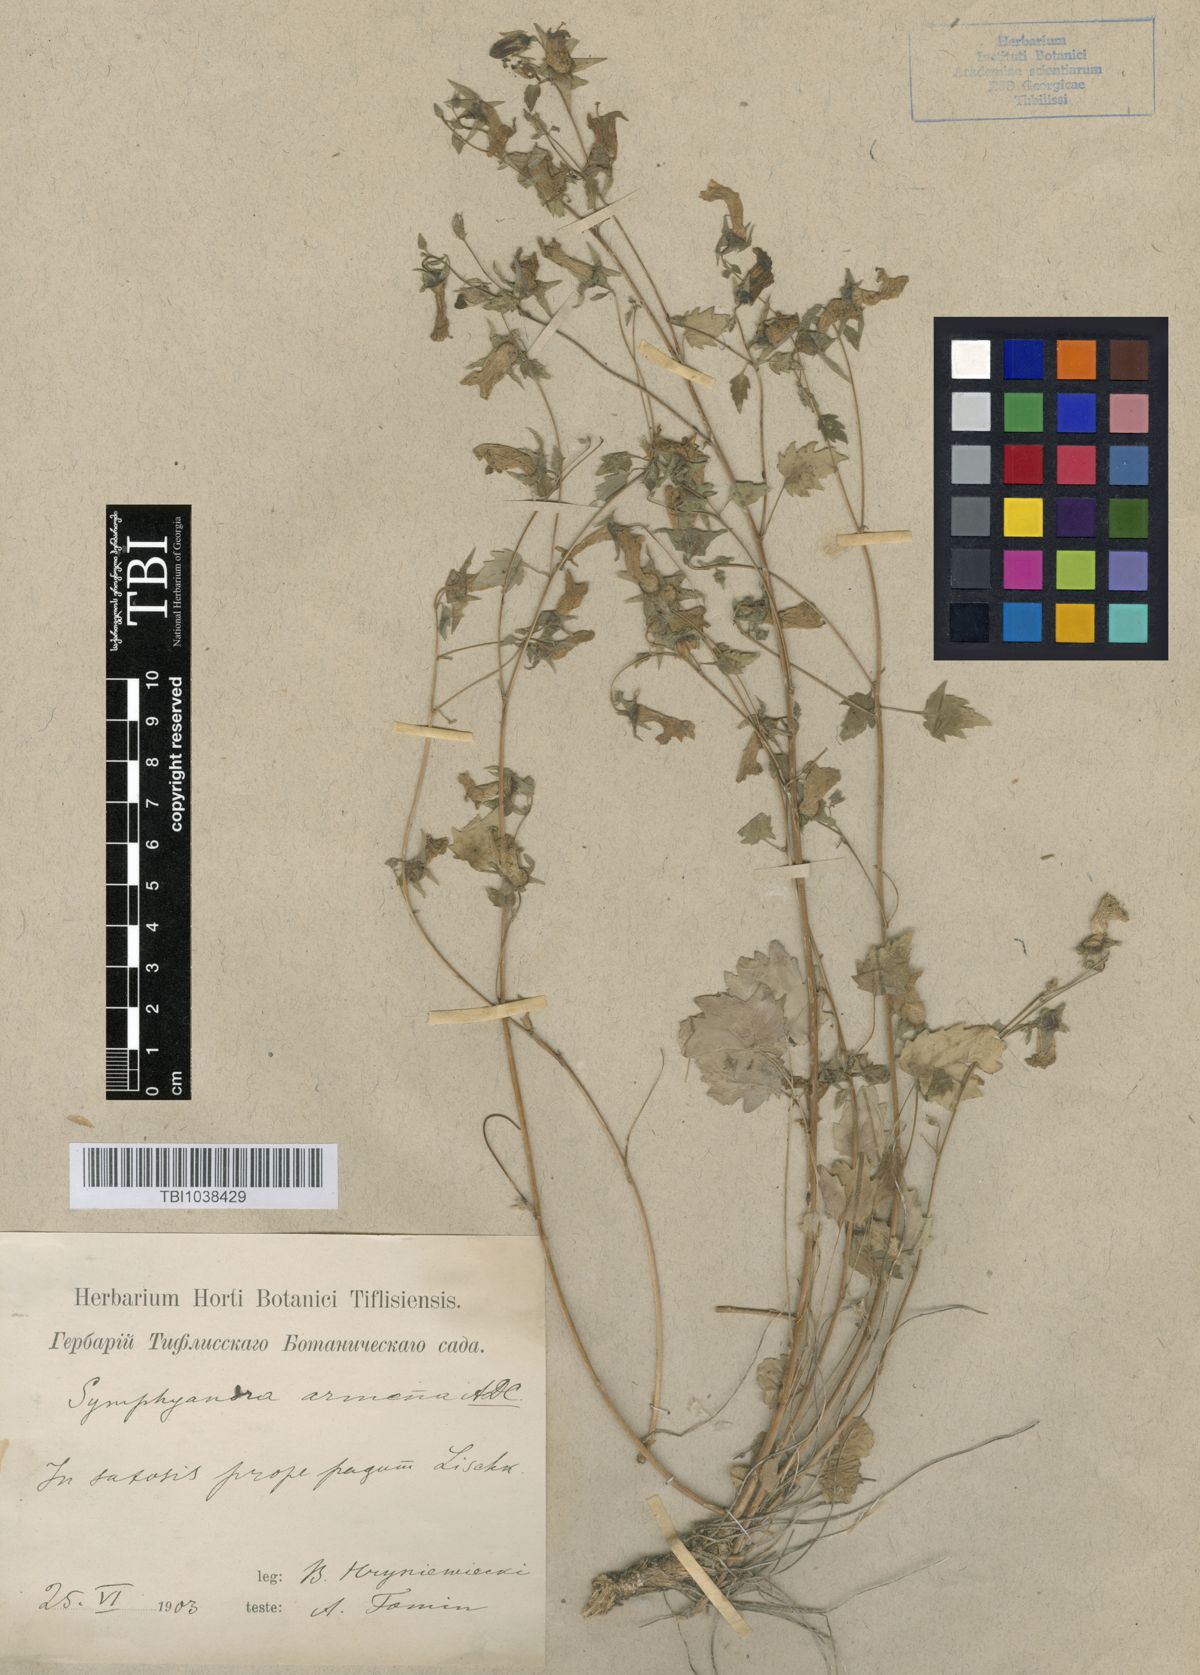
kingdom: Plantae
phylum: Tracheophyta
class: Magnoliopsida
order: Asterales
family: Campanulaceae
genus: Campanula
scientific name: Campanula armena
